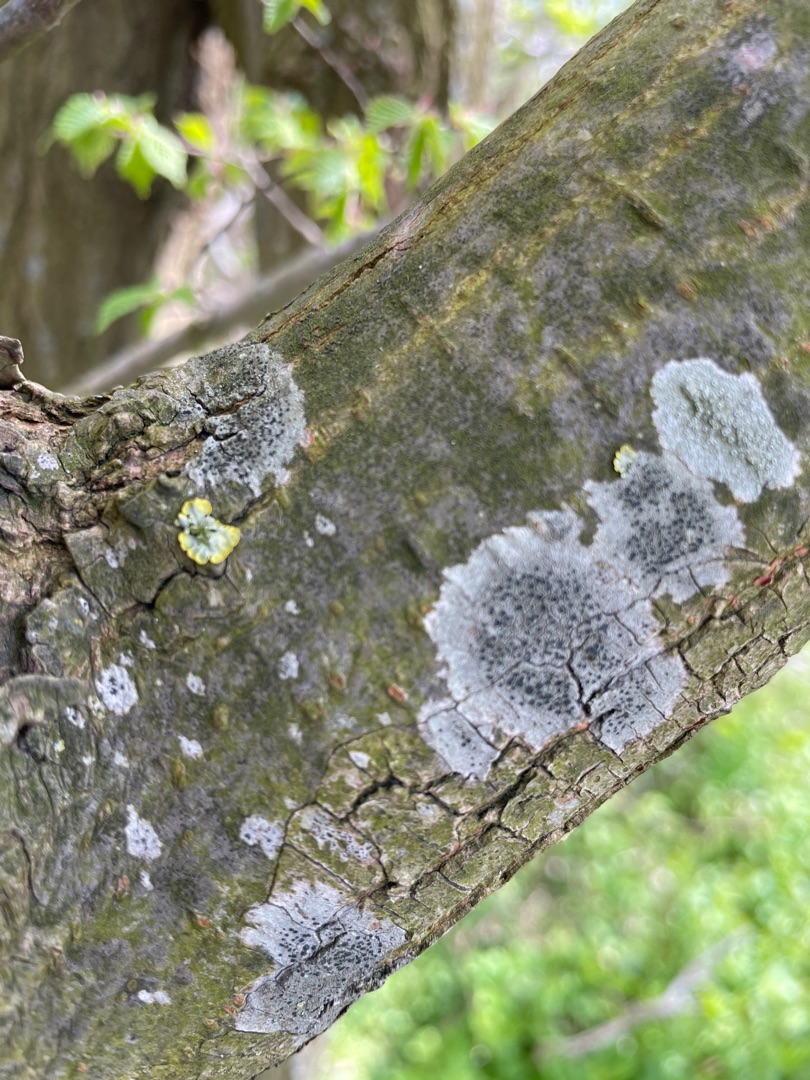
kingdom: Fungi
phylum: Ascomycota
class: Lecanoromycetes
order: Lecanorales
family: Lecanoraceae
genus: Lecidella
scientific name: Lecidella elaeochroma
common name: Grågrøn skivelav
